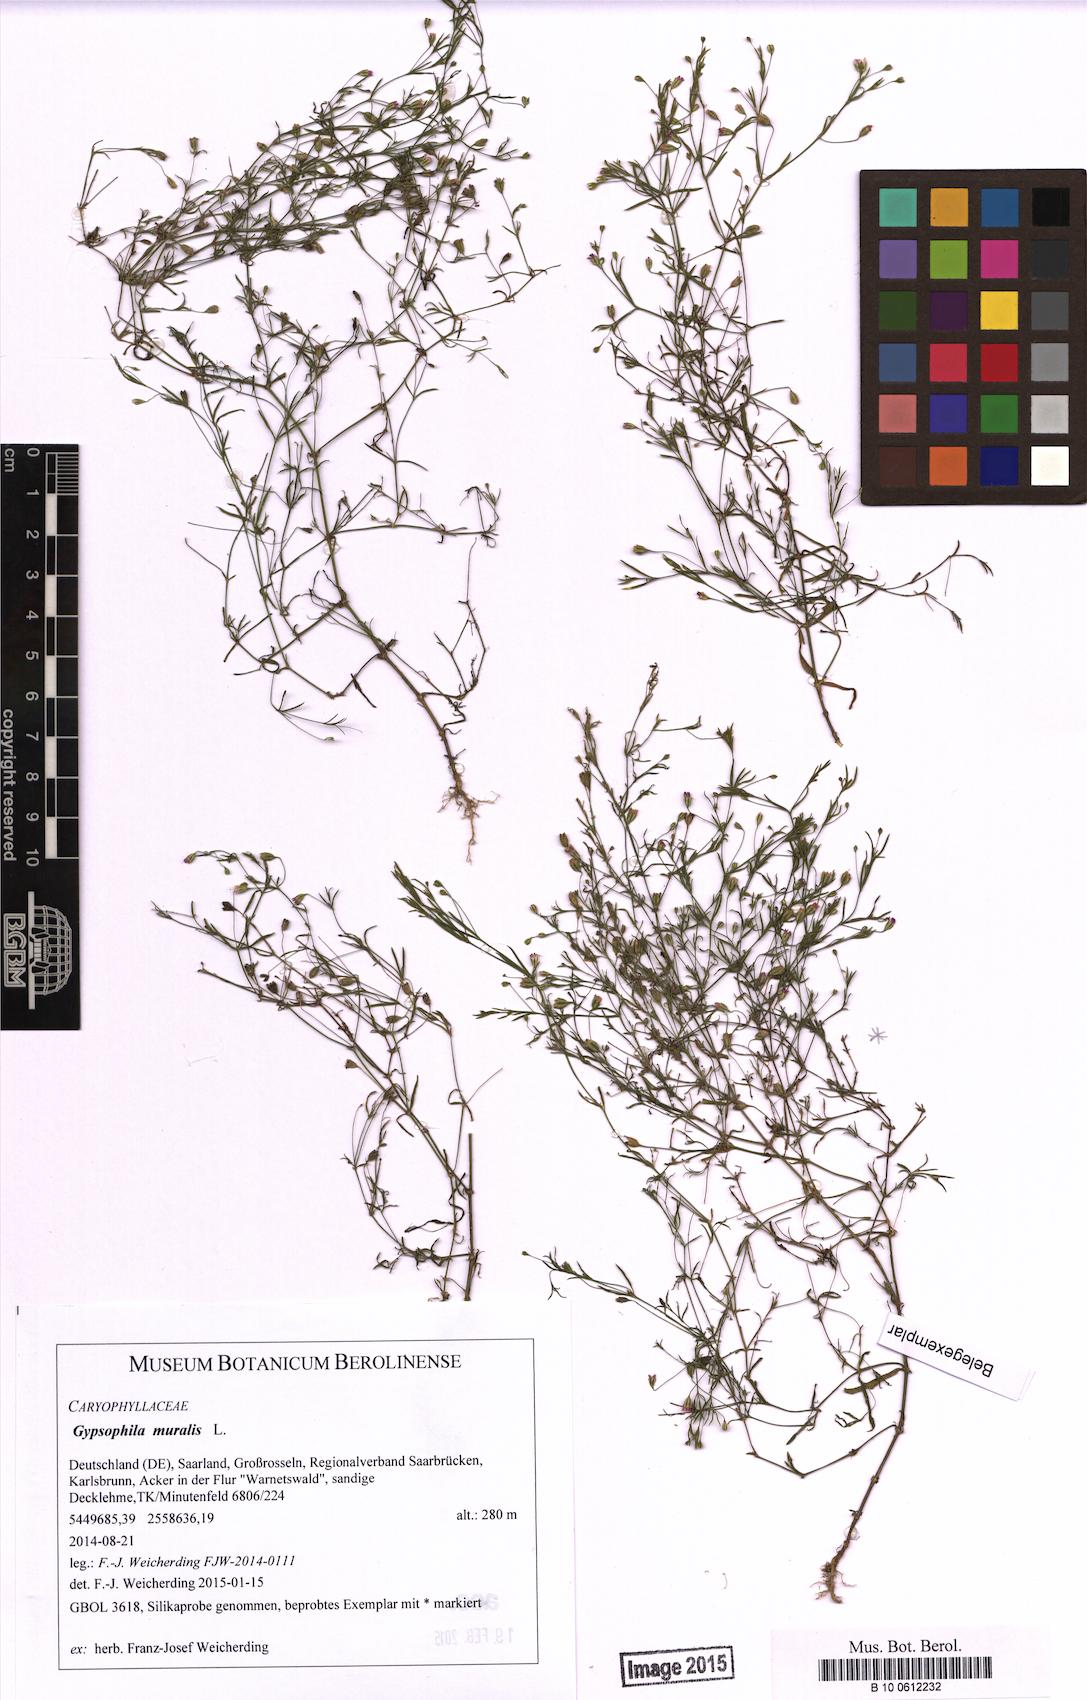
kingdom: Plantae
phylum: Tracheophyta
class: Magnoliopsida
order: Caryophyllales
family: Caryophyllaceae
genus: Psammophiliella
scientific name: Psammophiliella muralis
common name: Cushion baby's-breath
